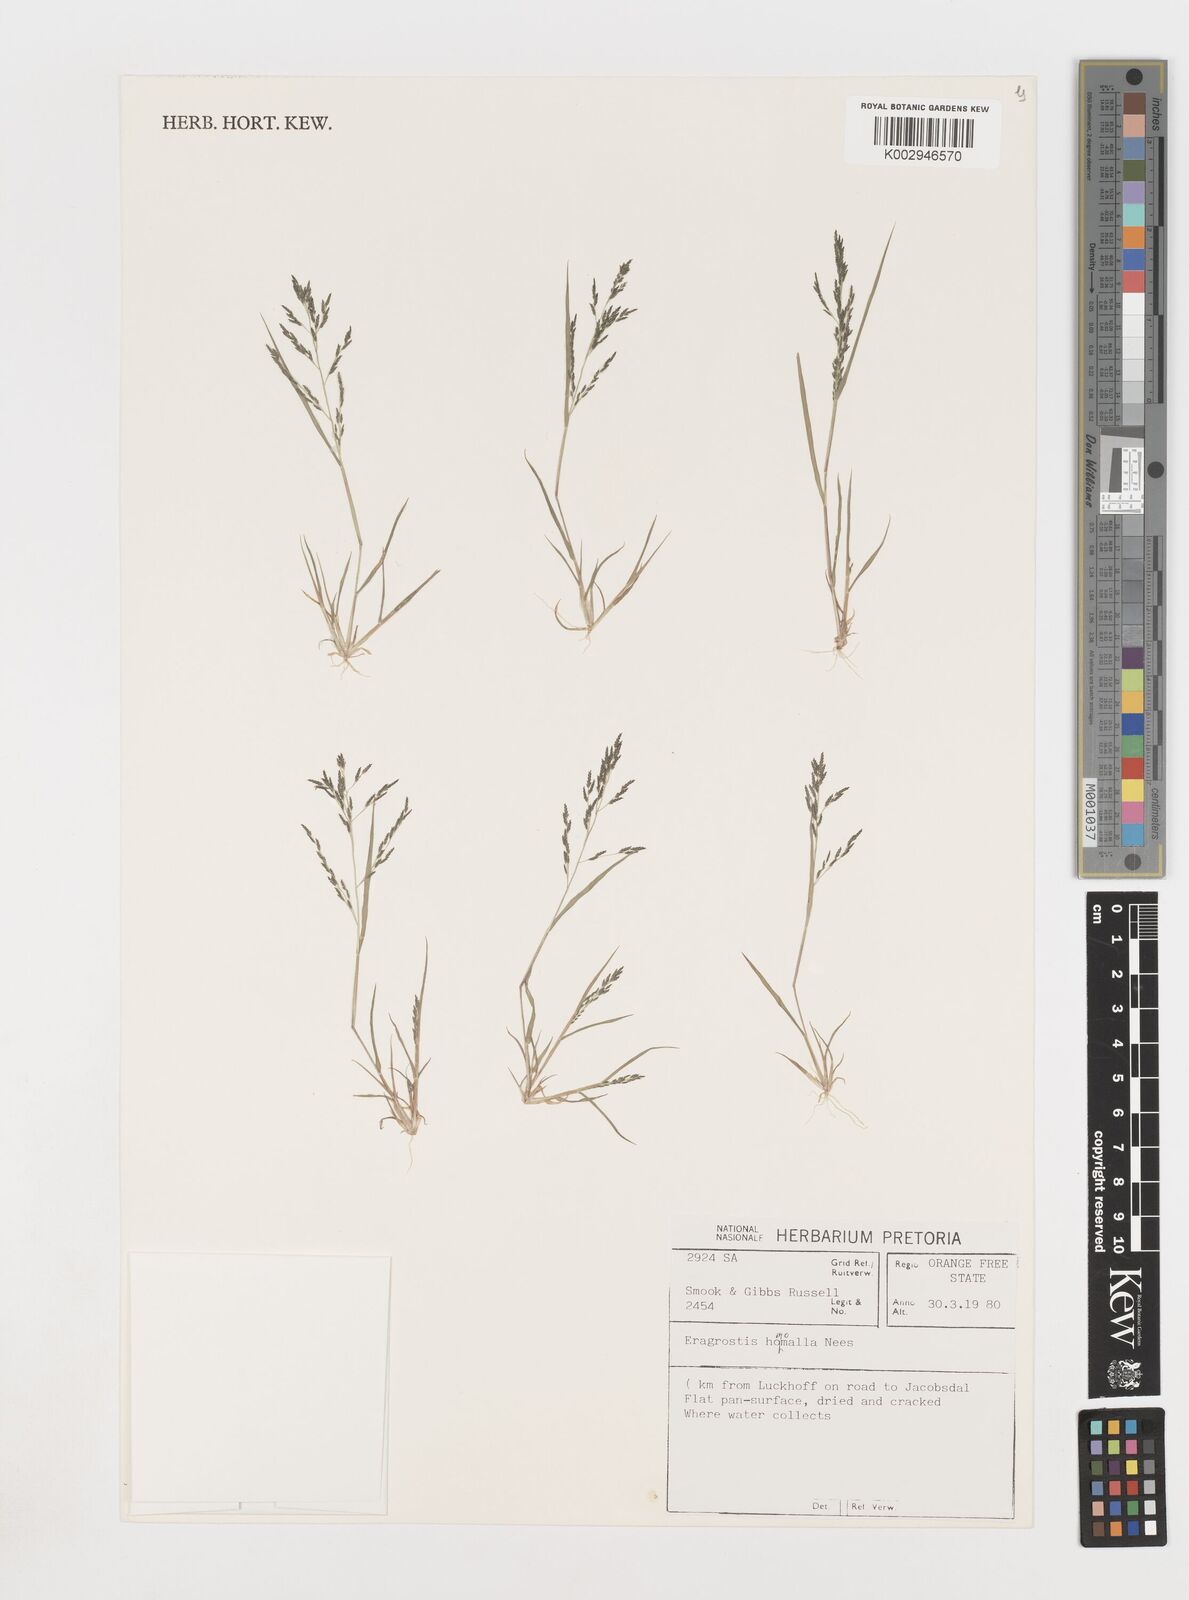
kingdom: Plantae
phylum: Tracheophyta
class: Liliopsida
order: Poales
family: Poaceae
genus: Eragrostis
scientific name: Eragrostis homomalla
